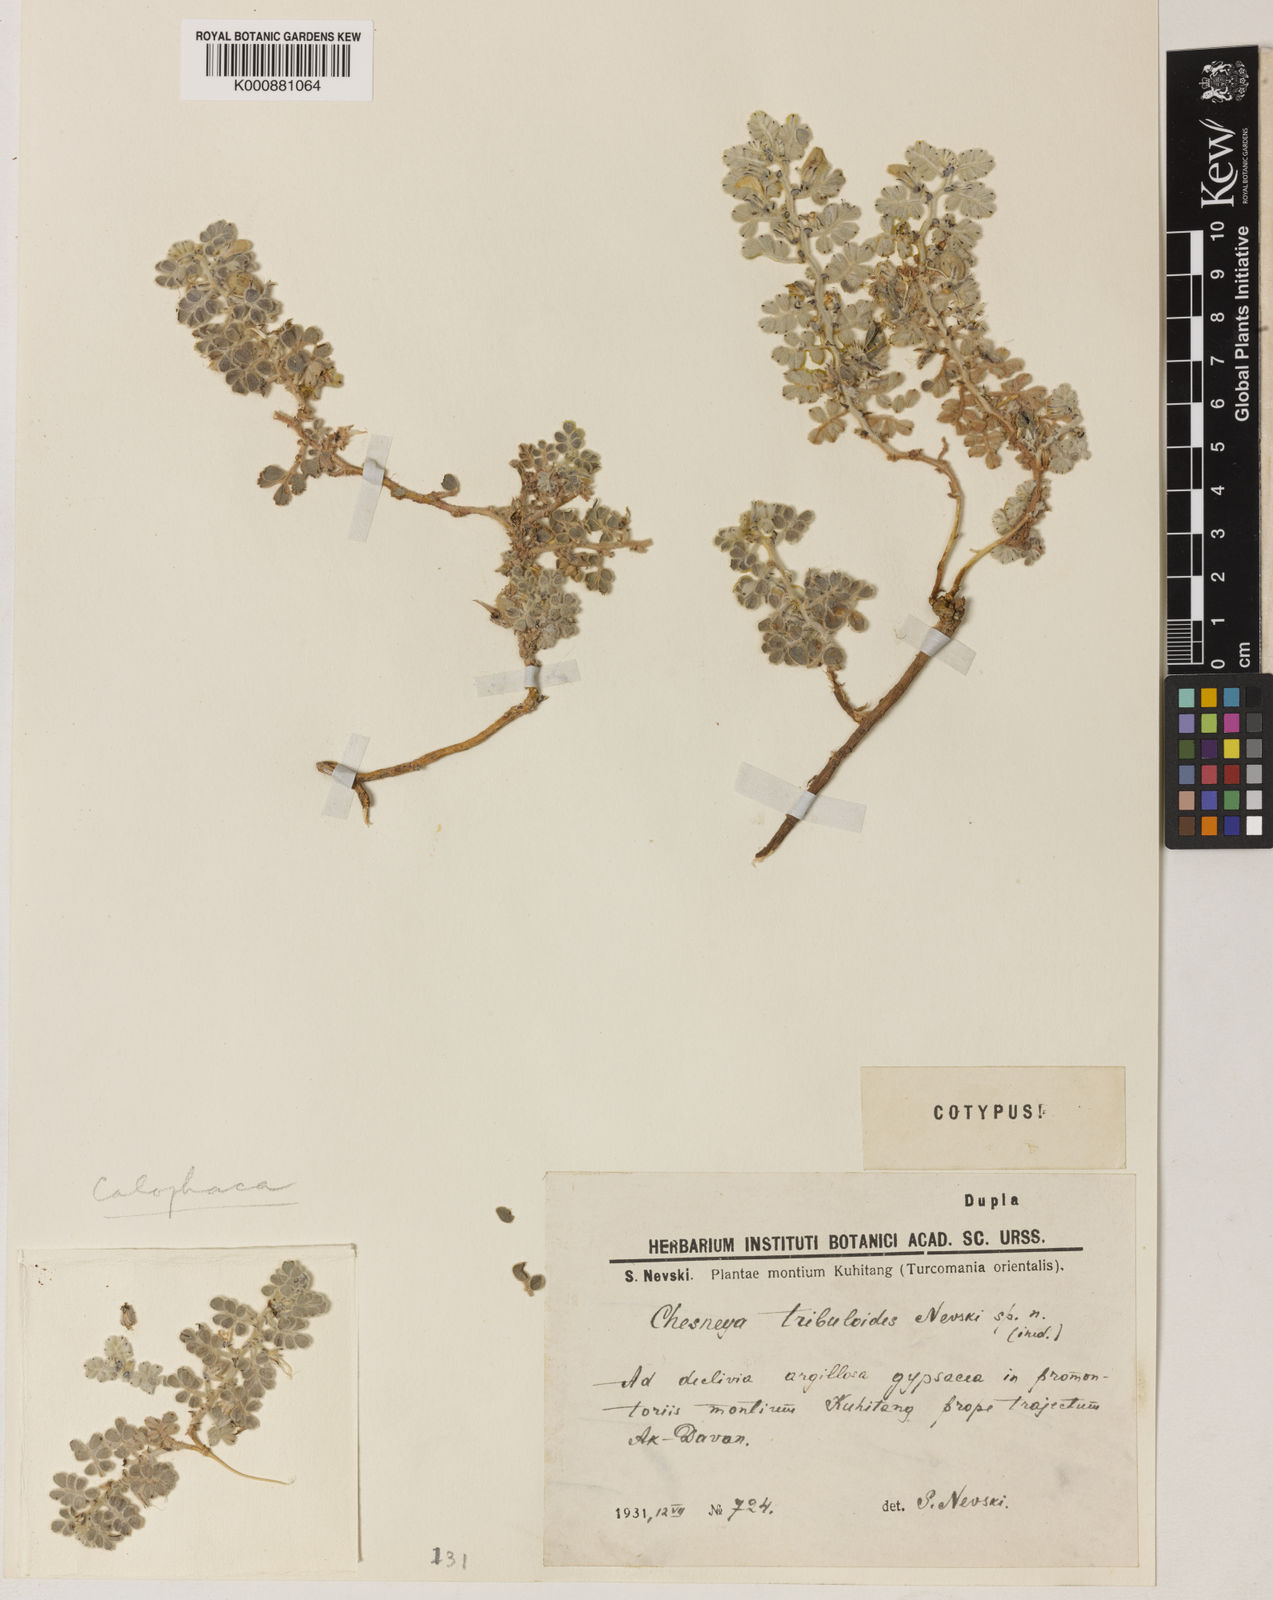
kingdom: Plantae
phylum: Tracheophyta
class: Magnoliopsida
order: Fabales
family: Fabaceae
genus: Chesneya
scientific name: Chesneya tribuloides
